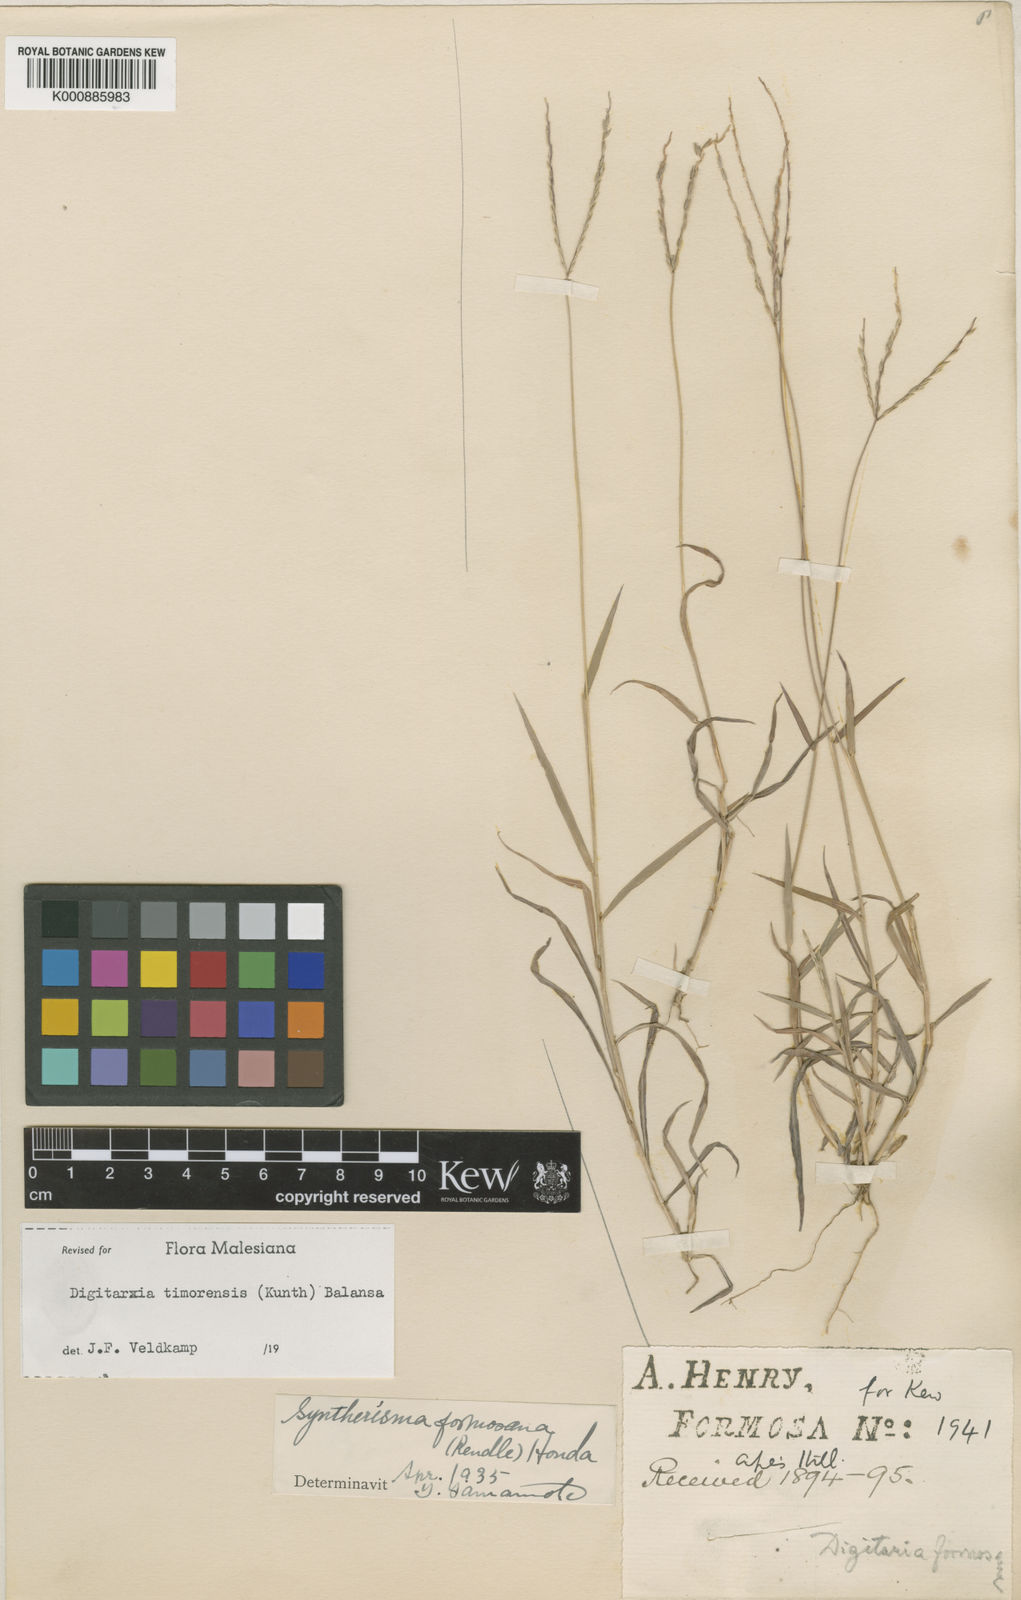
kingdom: Plantae
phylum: Tracheophyta
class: Liliopsida
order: Poales
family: Poaceae
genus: Digitaria
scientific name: Digitaria radicosa
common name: Trailing crabgrass
